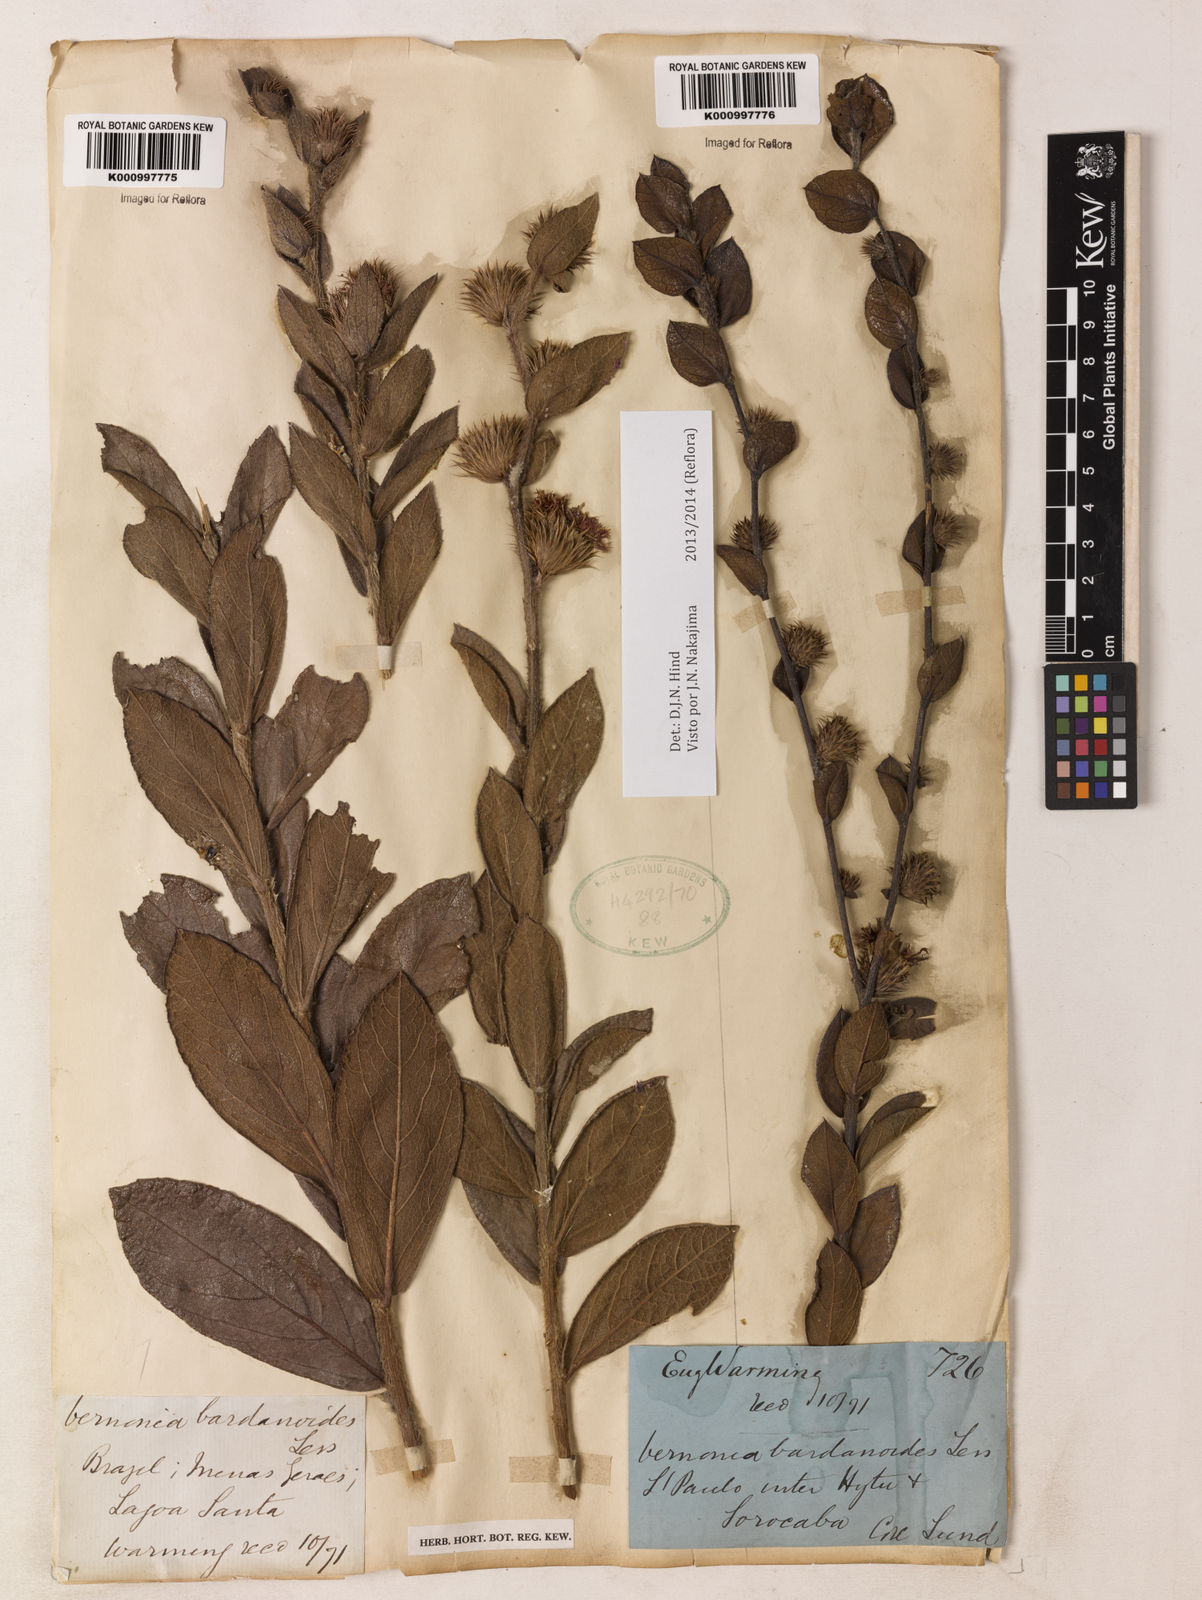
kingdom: Plantae
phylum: Tracheophyta
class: Magnoliopsida
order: Asterales
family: Asteraceae
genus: Lessingianthus
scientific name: Lessingianthus bardanioides
